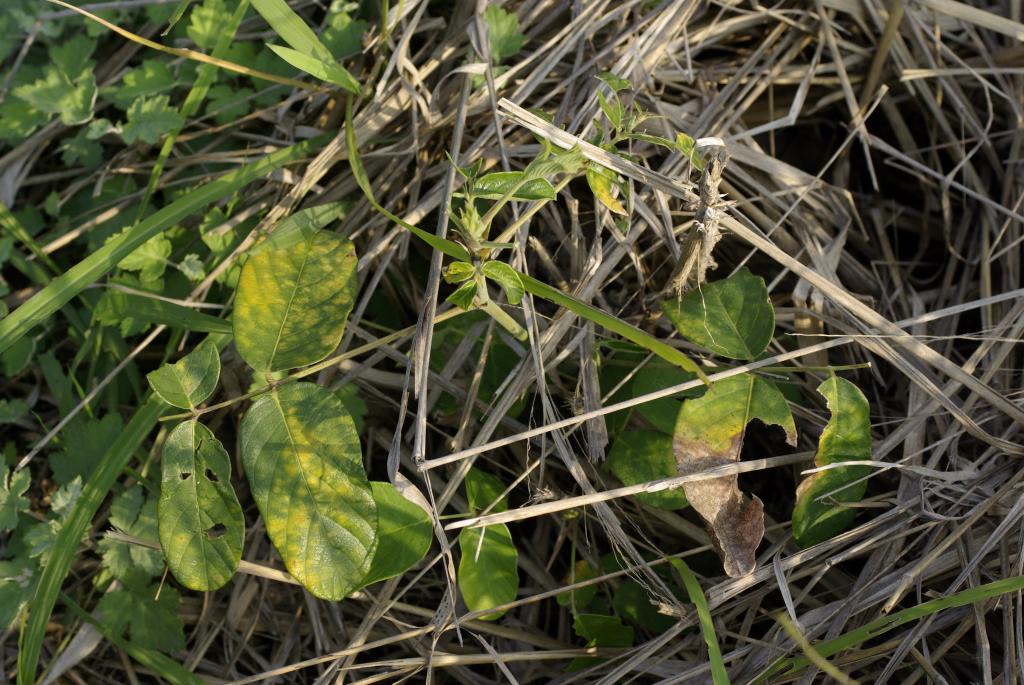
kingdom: Plantae
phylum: Tracheophyta
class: Magnoliopsida
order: Fabales
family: Fabaceae
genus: Uraria
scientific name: Uraria crinita
